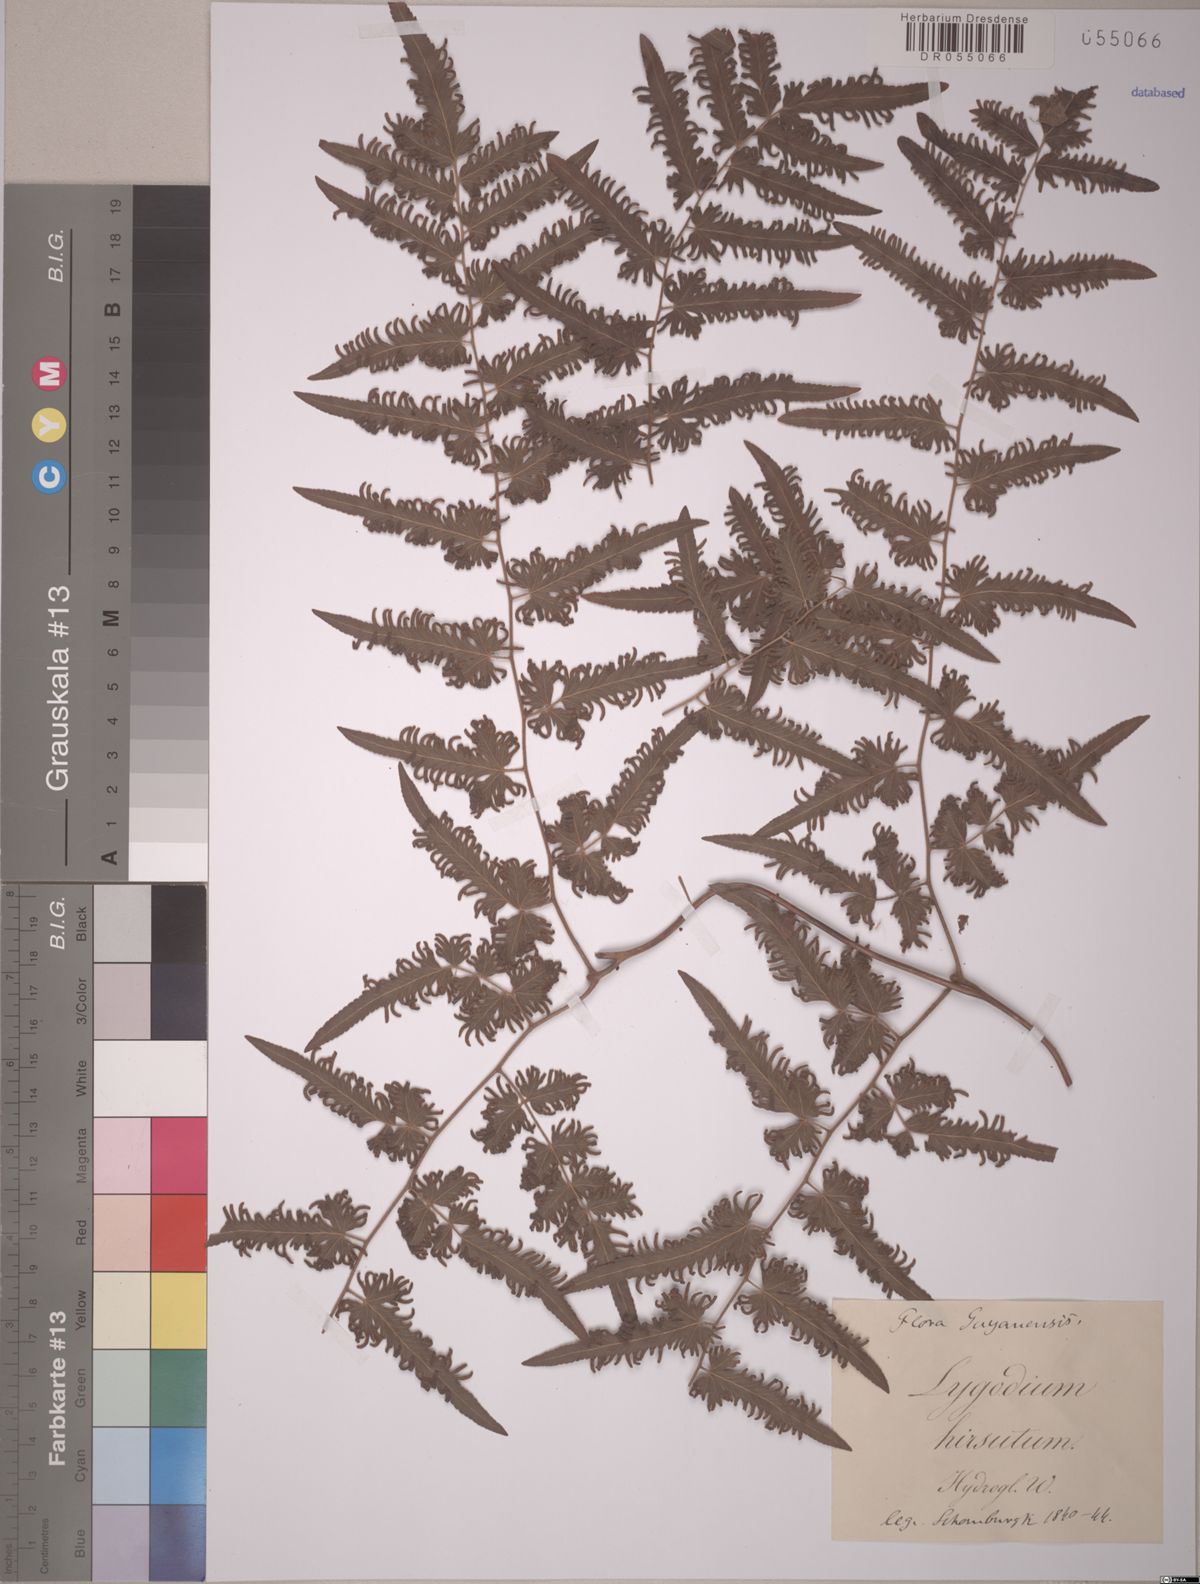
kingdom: Plantae
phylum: Tracheophyta
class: Polypodiopsida
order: Schizaeales
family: Lygodiaceae
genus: Lygodium
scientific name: Lygodium venustum
